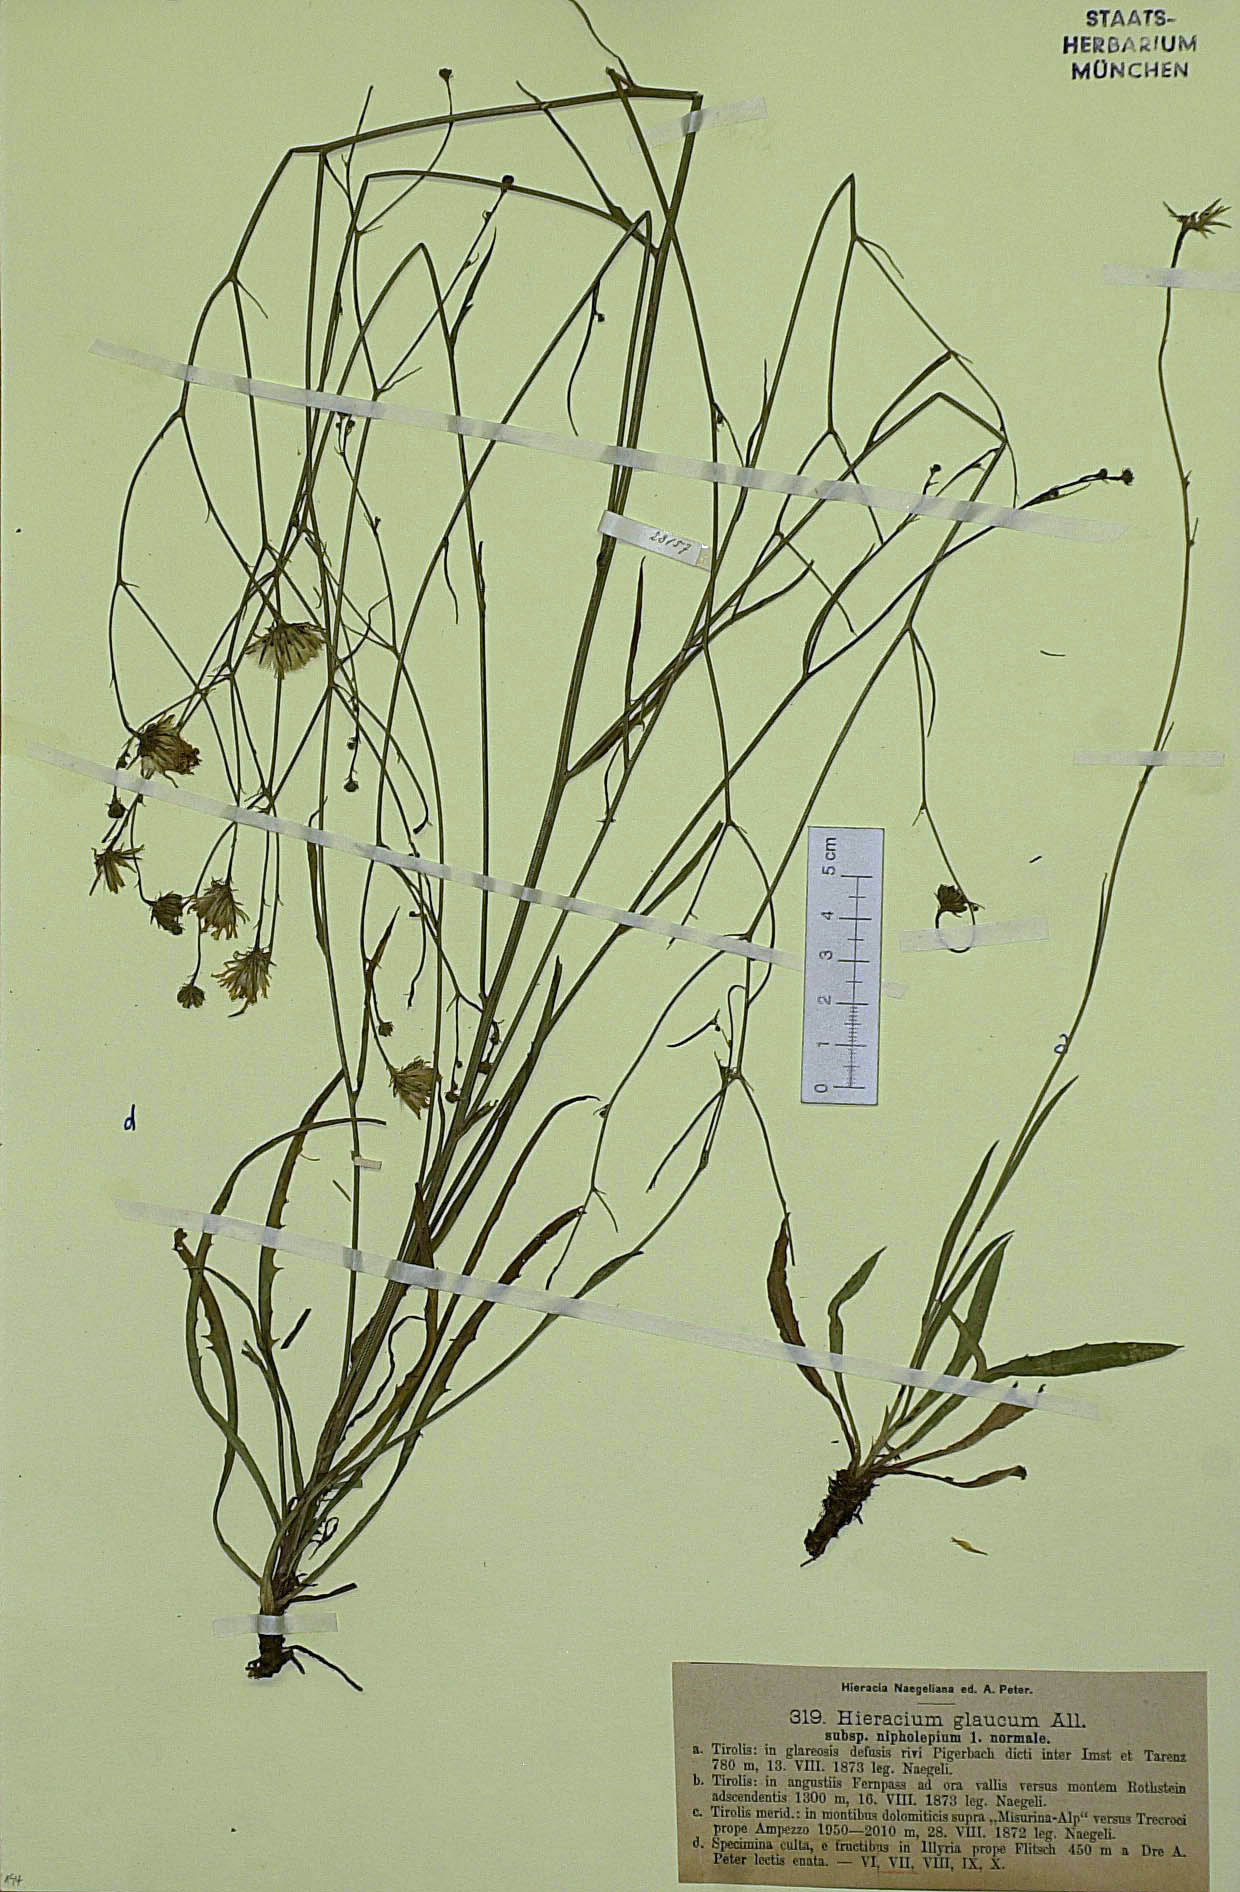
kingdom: Plantae
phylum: Tracheophyta
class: Magnoliopsida
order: Asterales
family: Asteraceae
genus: Hieracium
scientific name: Hieracium glaucum
